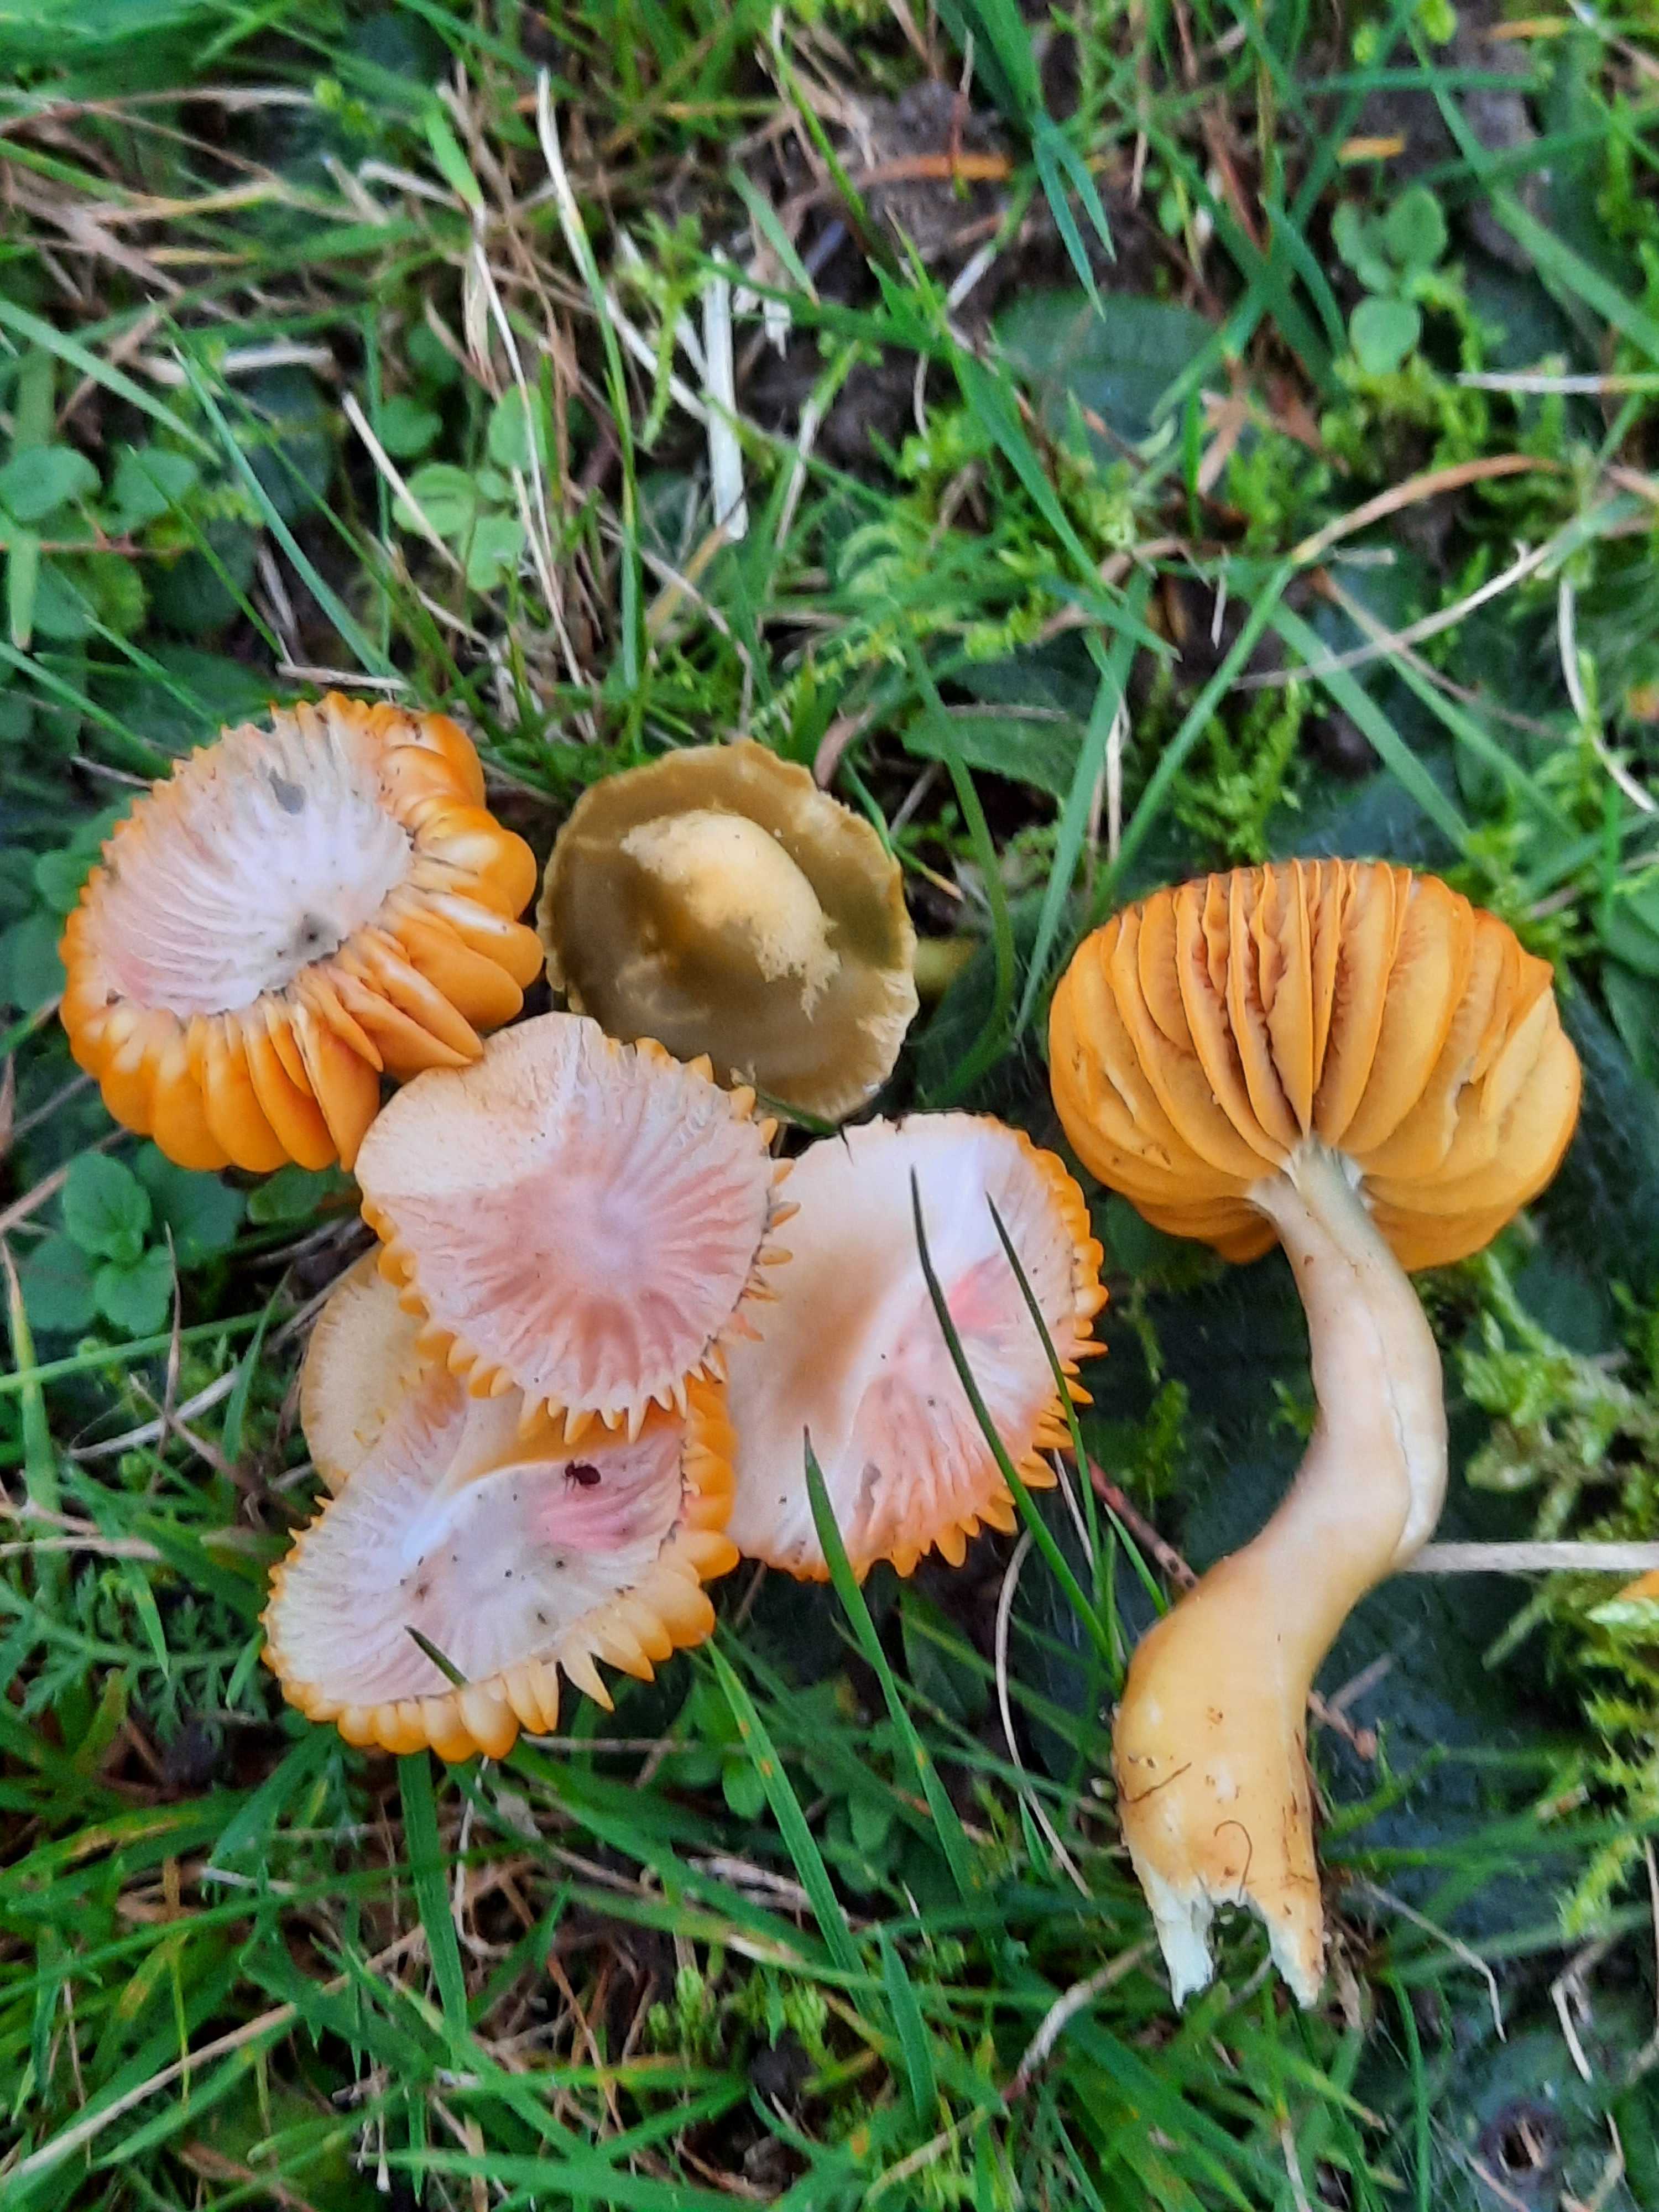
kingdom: Fungi
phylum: Basidiomycota
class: Agaricomycetes
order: Agaricales
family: Hygrophoraceae
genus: Gliophorus
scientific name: Gliophorus psittacinus
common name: papegøje-vokshat
